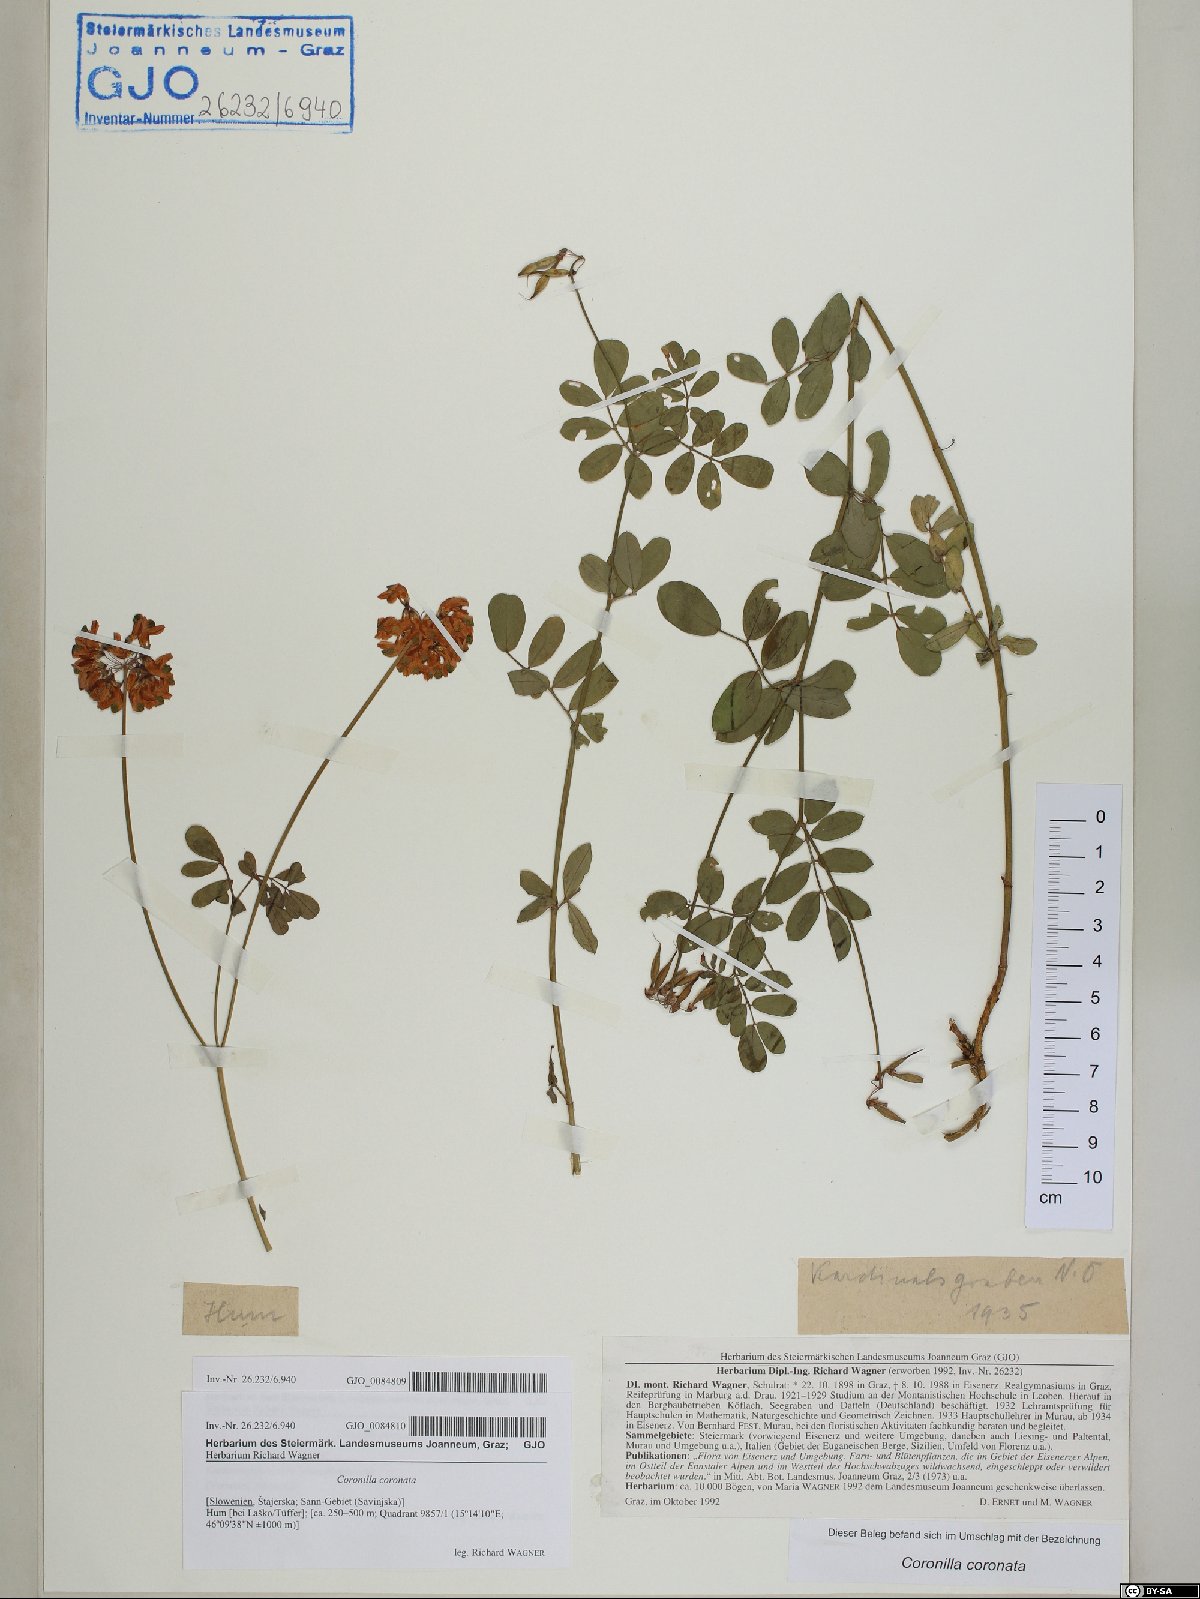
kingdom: Plantae
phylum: Tracheophyta
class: Magnoliopsida
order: Fabales
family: Fabaceae
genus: Coronilla
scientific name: Coronilla coronata
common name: Scorpion-vetch
